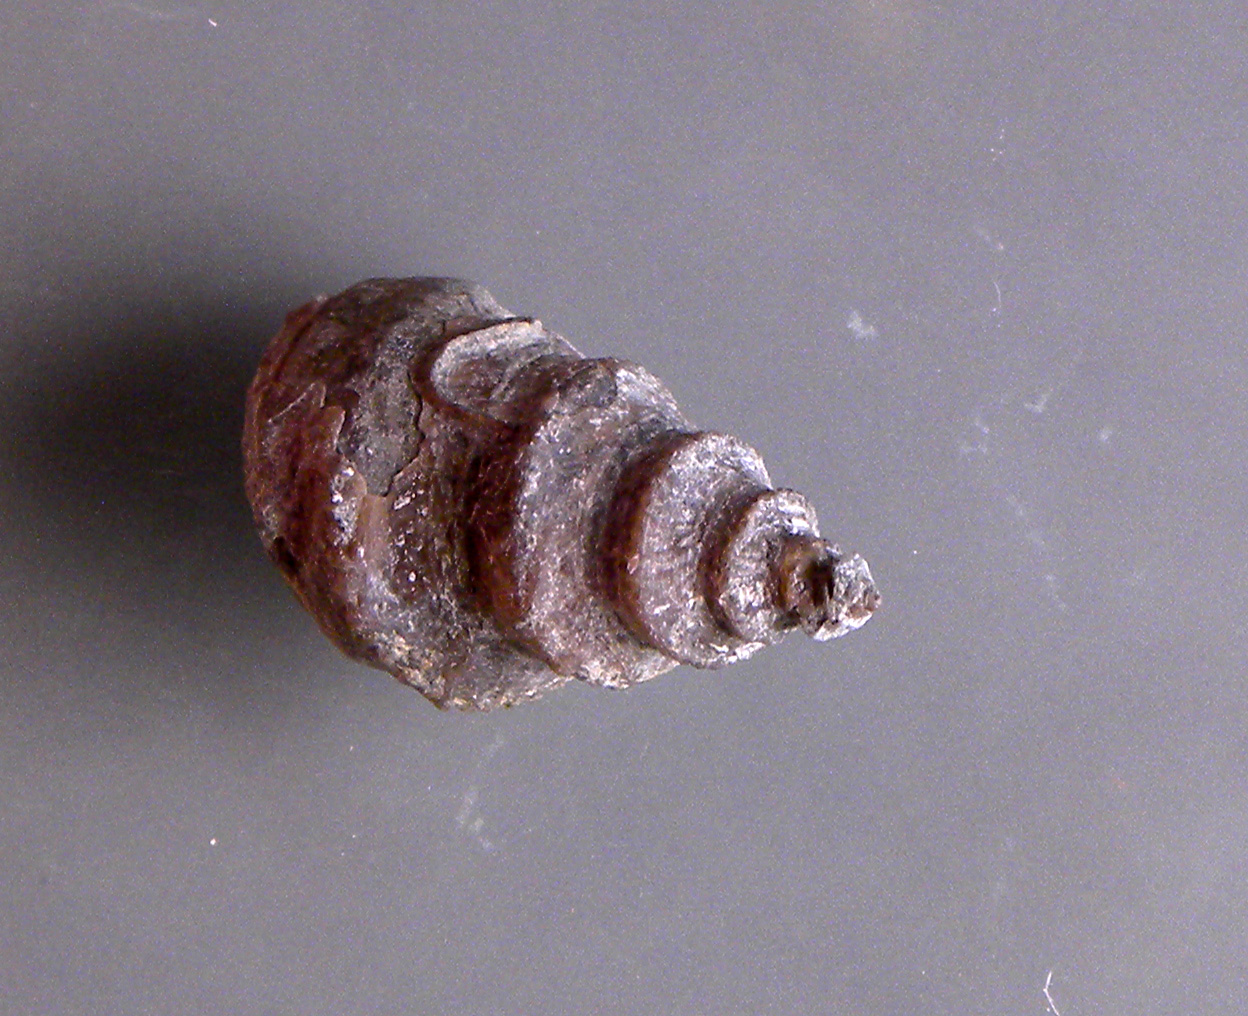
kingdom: Animalia
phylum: Mollusca
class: Gastropoda
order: Seguenziida
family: Eucyclidae
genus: Eucycloidea
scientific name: Eucycloidea Rostellaria tenuistria
